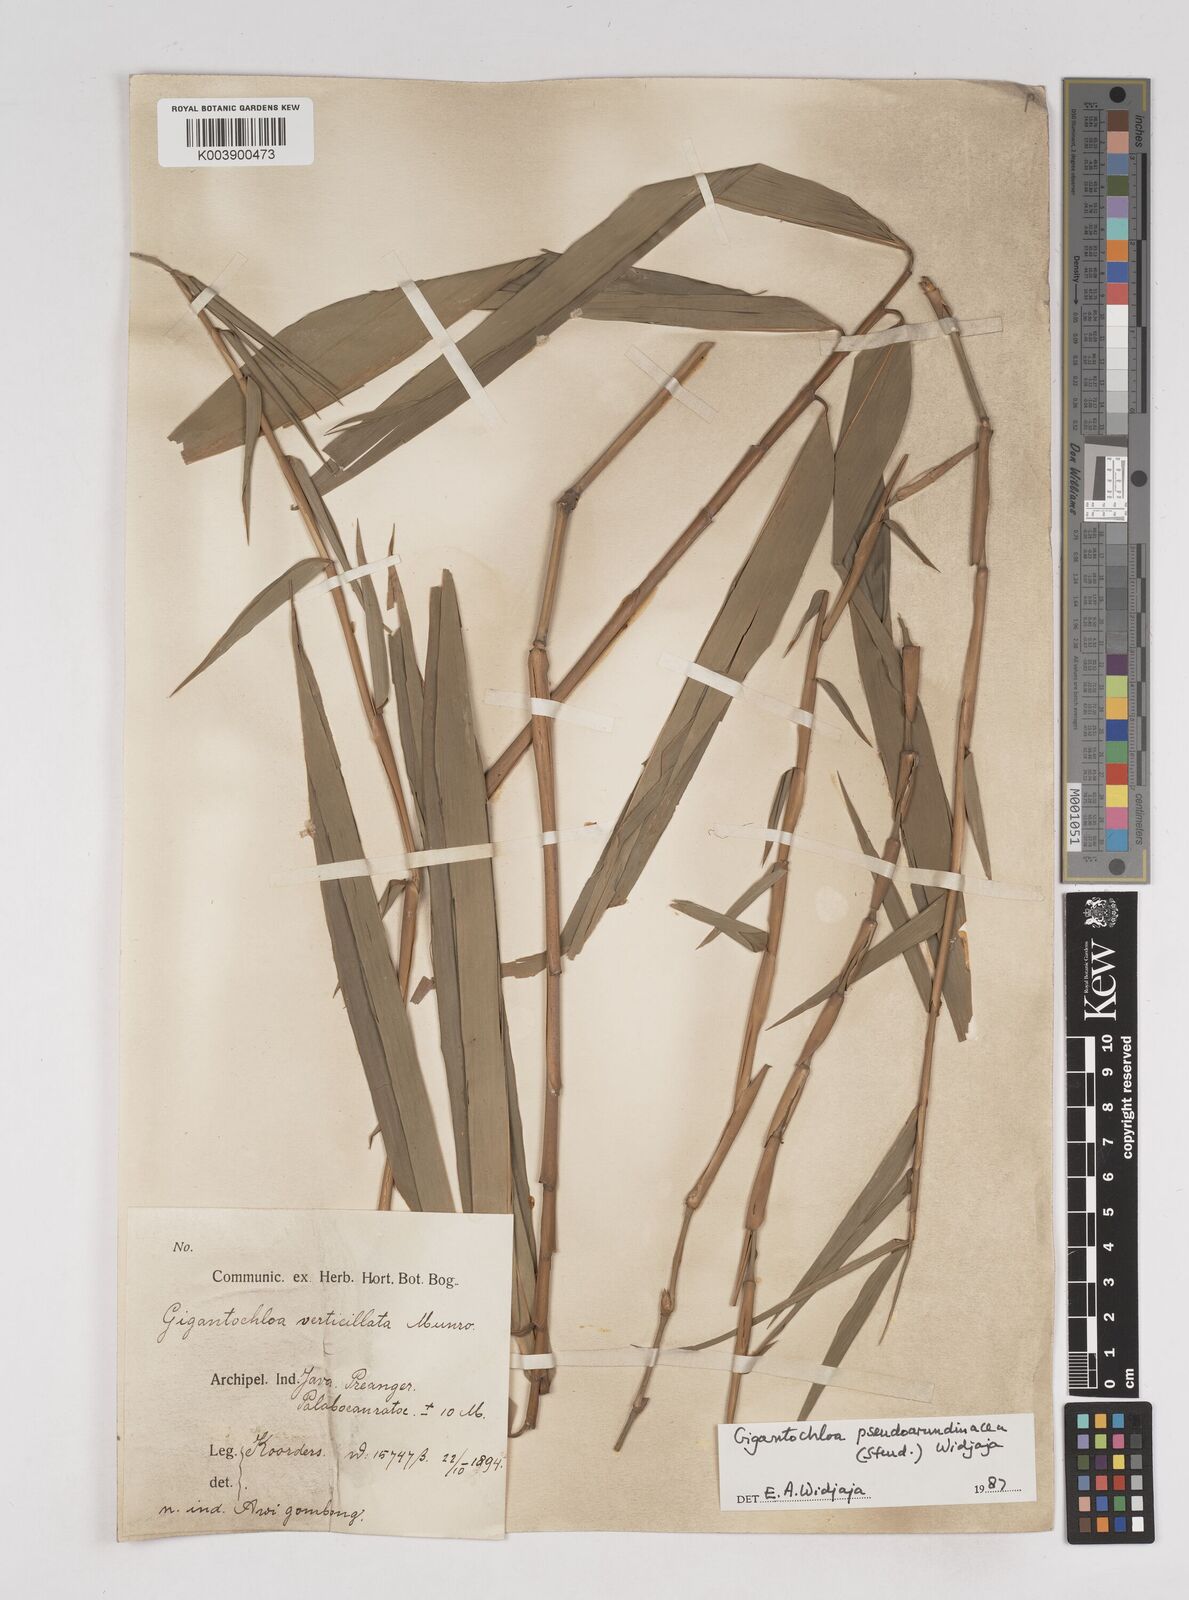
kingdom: Plantae
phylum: Tracheophyta
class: Liliopsida
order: Poales
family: Poaceae
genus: Gigantochloa
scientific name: Gigantochloa verticillata
